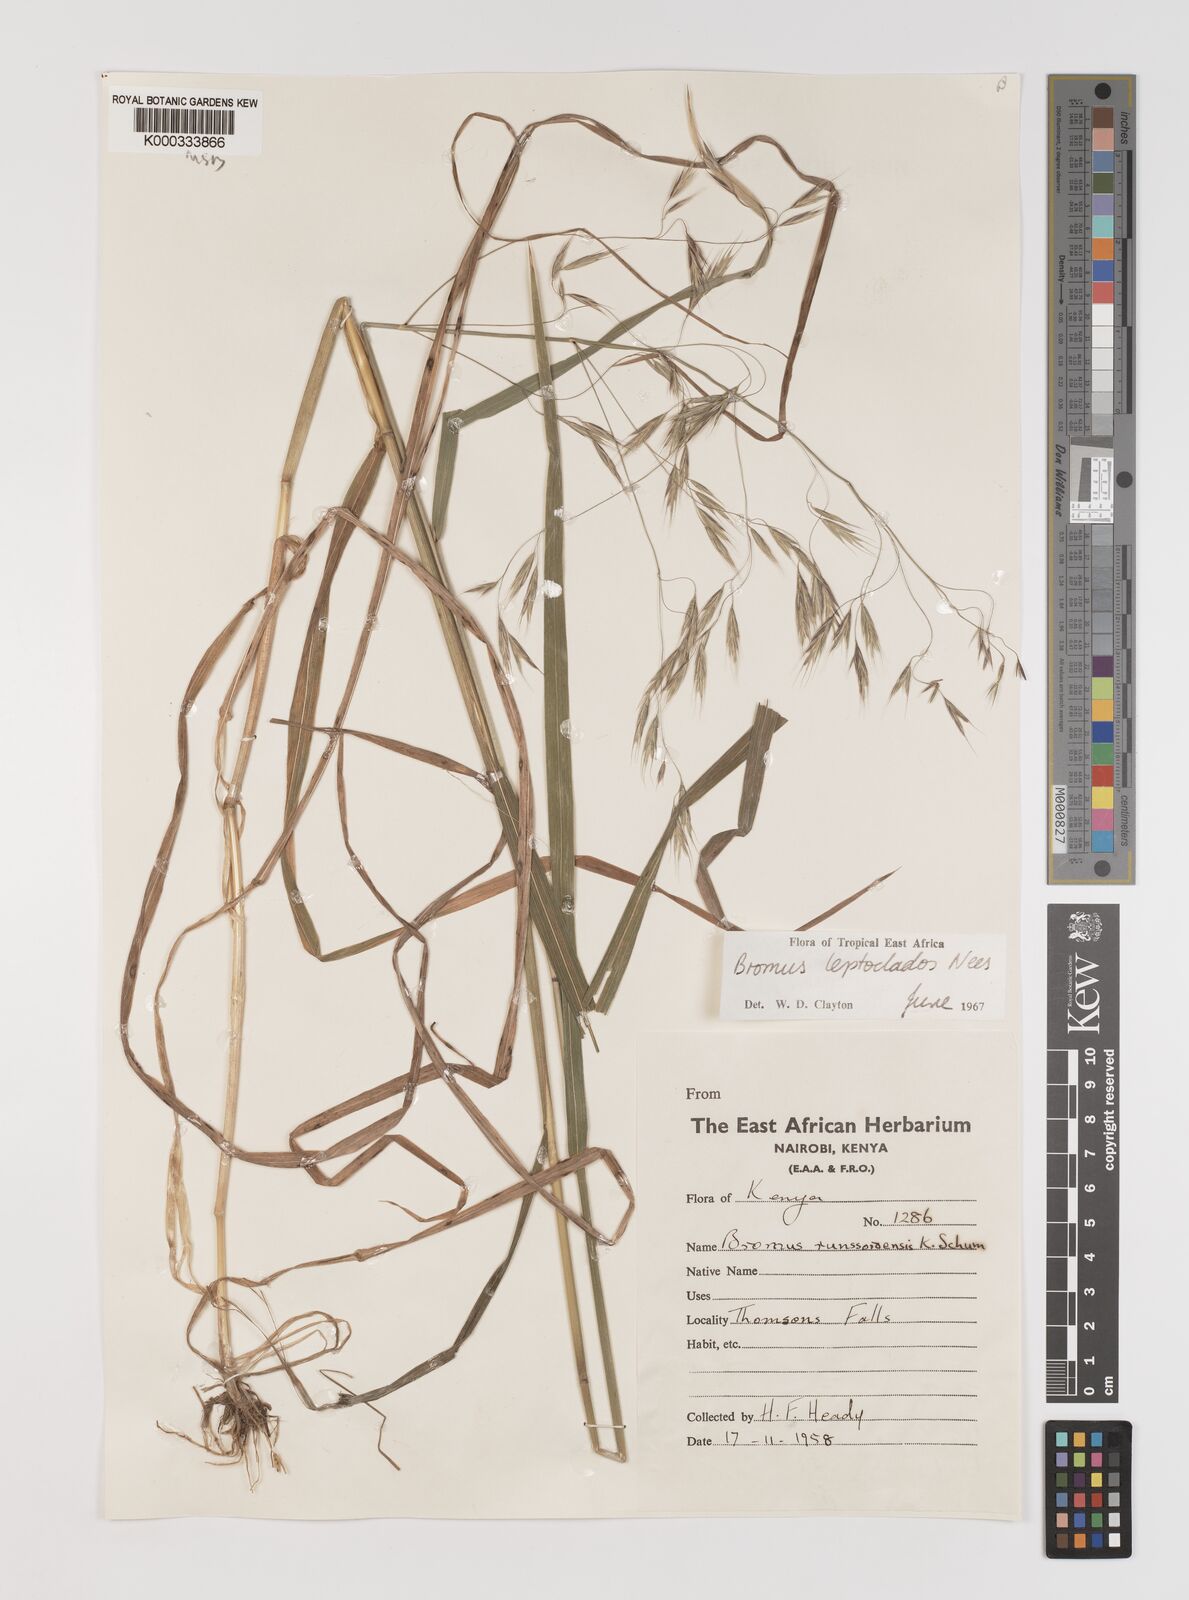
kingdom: Plantae
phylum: Tracheophyta
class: Liliopsida
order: Poales
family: Poaceae
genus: Bromus
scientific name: Bromus leptoclados
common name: Mountain bromegrass
